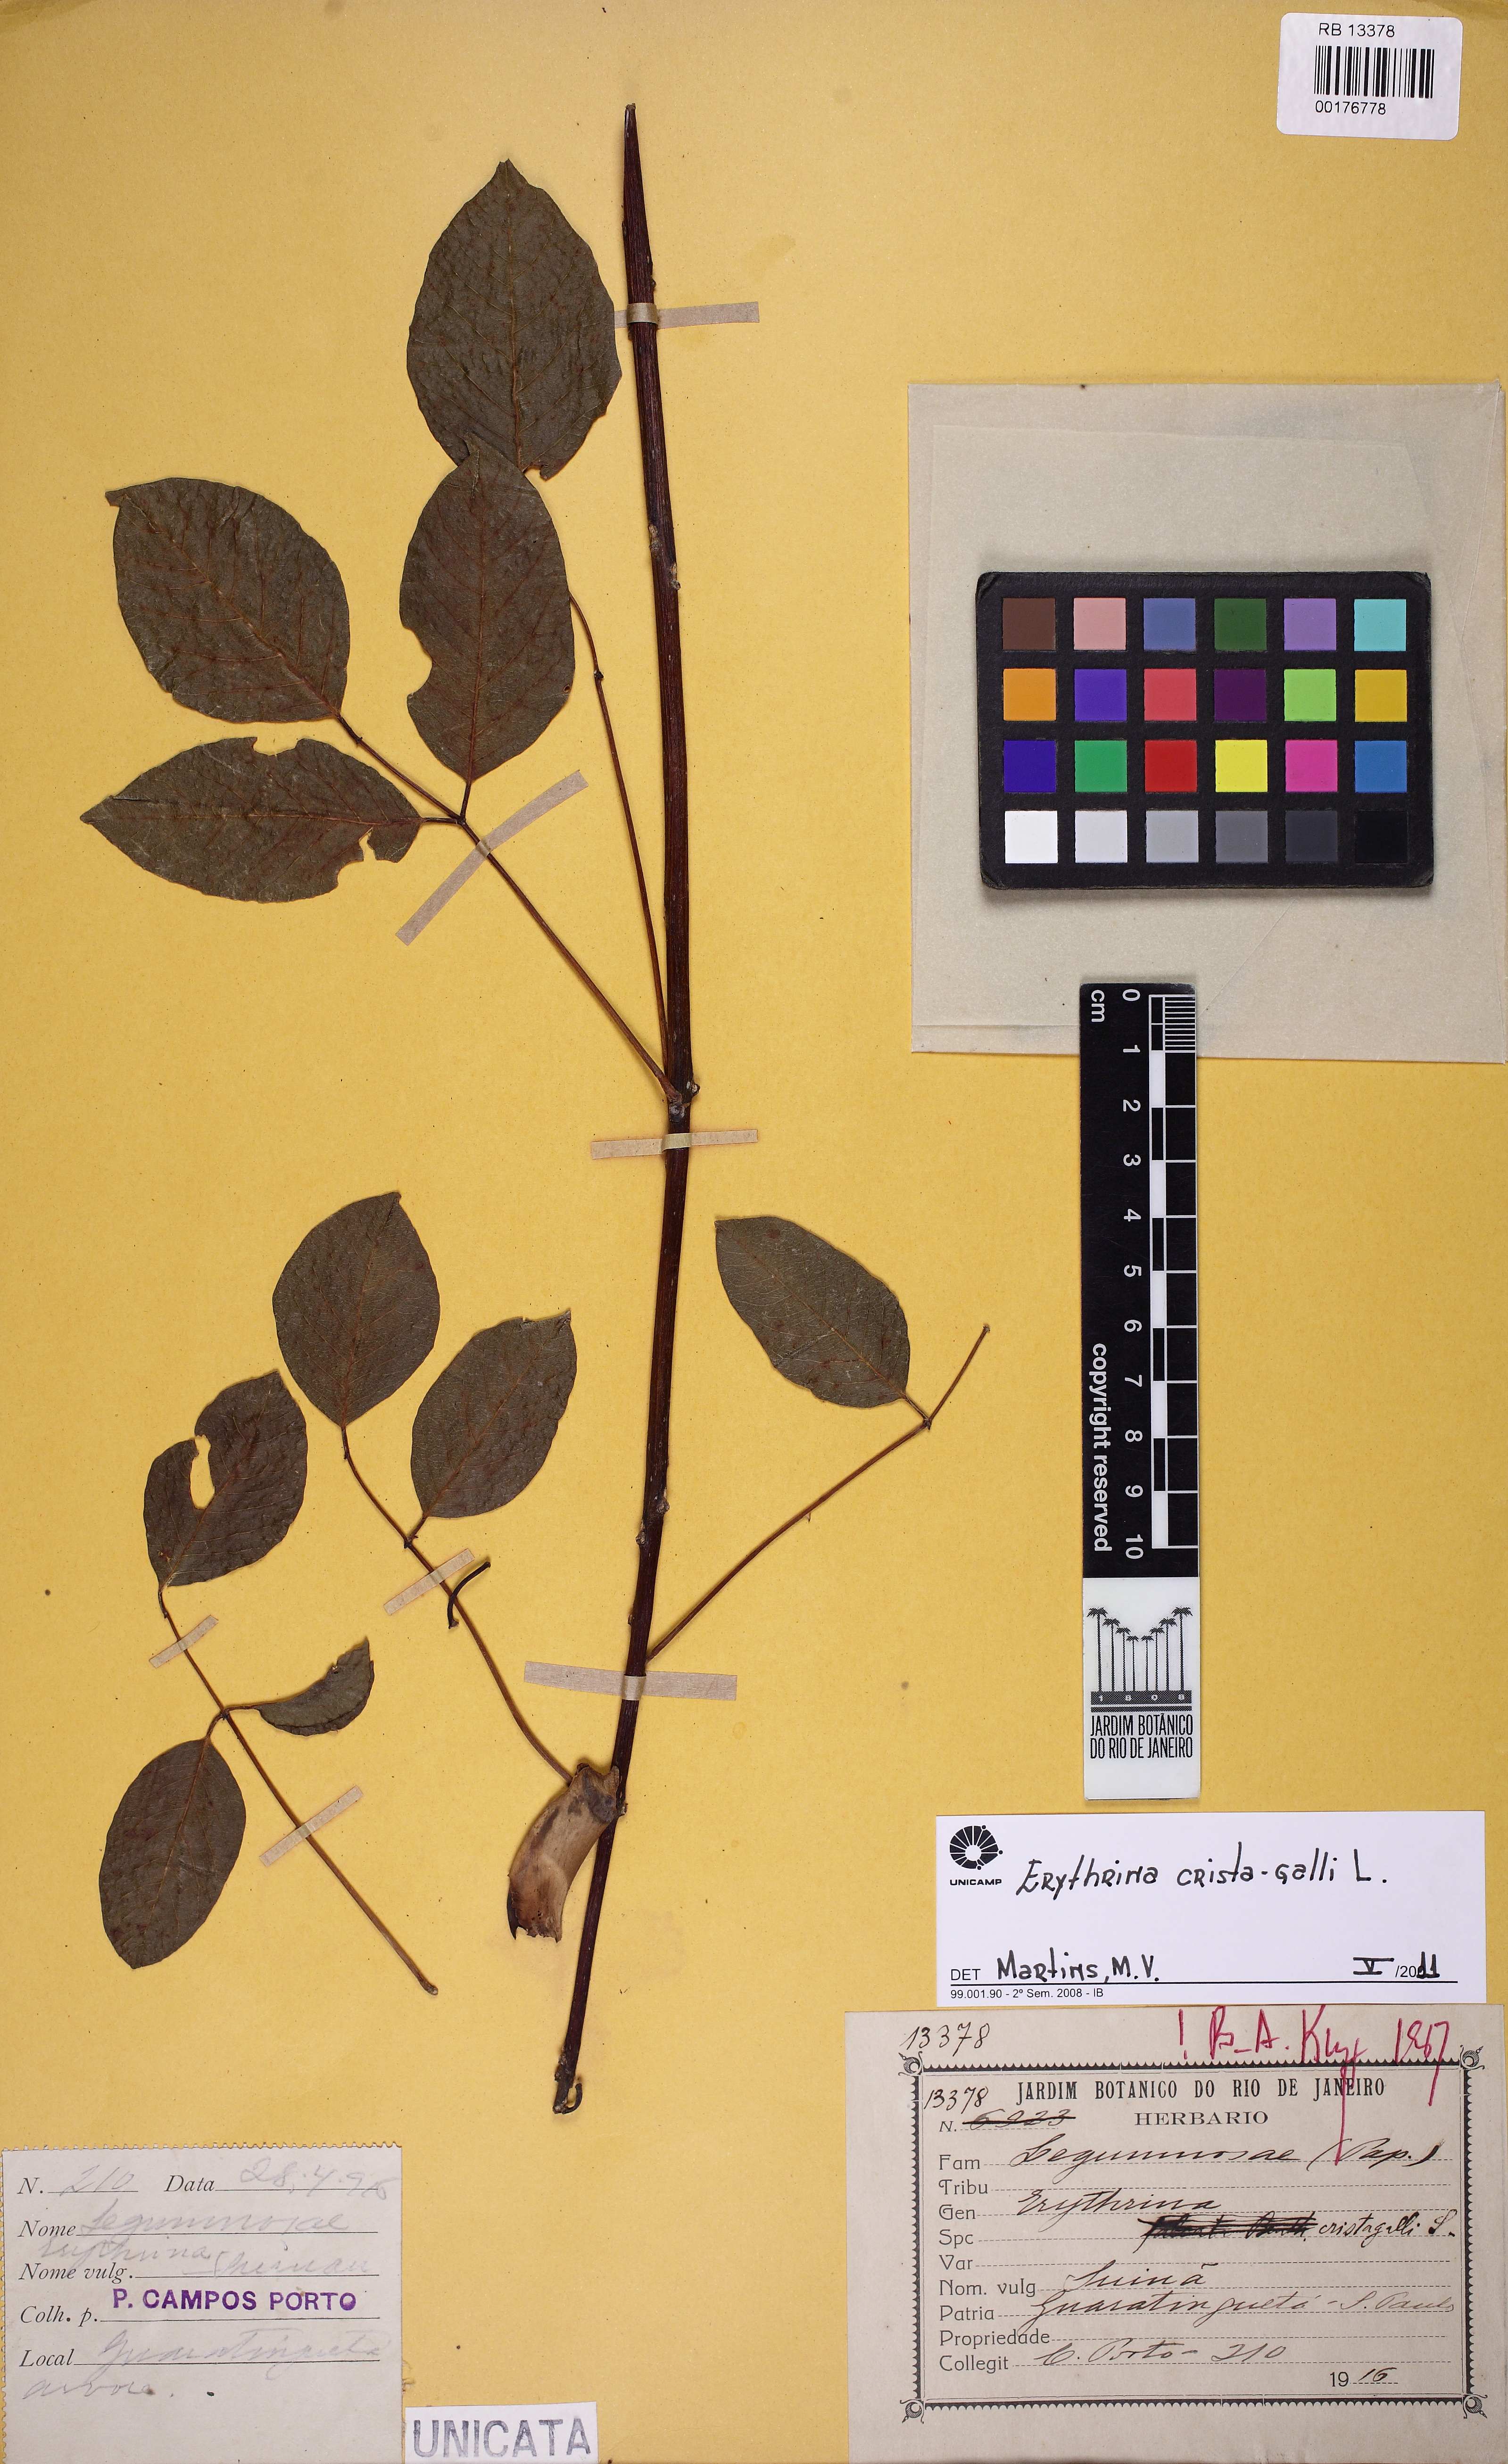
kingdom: Plantae
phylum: Tracheophyta
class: Magnoliopsida
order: Fabales
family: Fabaceae
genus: Erythrina
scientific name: Erythrina crista-galli
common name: Cockspur coral tree
